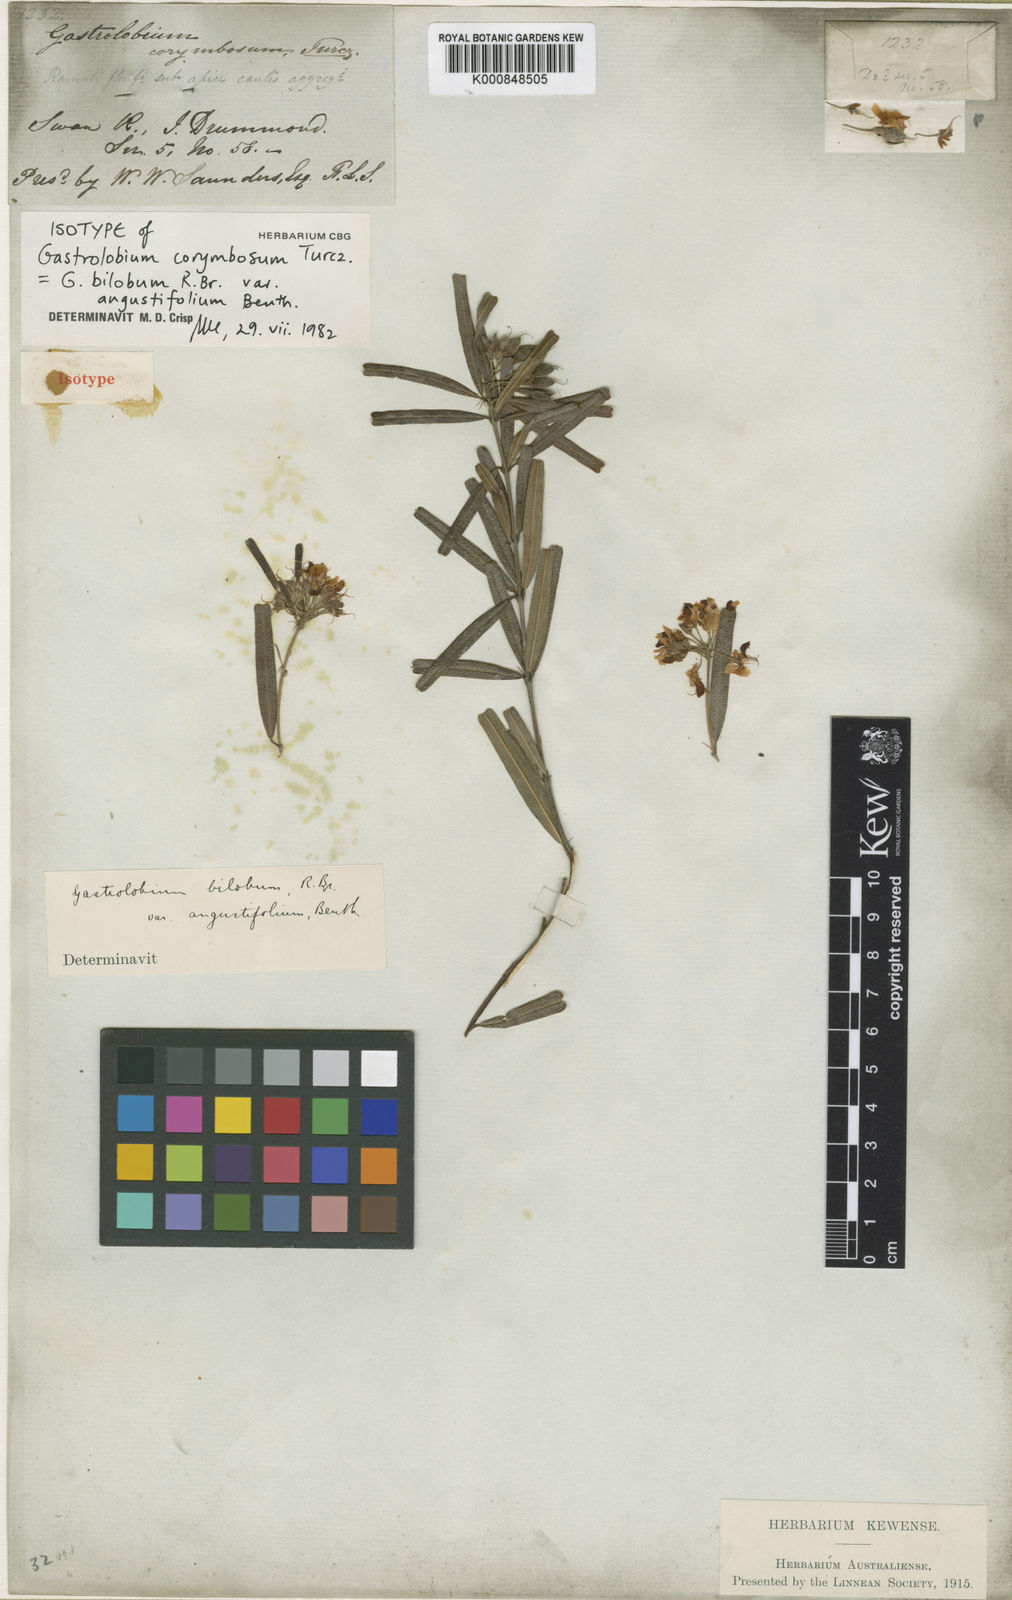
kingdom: Plantae
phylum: Tracheophyta
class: Magnoliopsida
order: Fabales
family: Fabaceae
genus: Gastrolobium
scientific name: Gastrolobium bilobum
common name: Heart-leaf poisonbush
